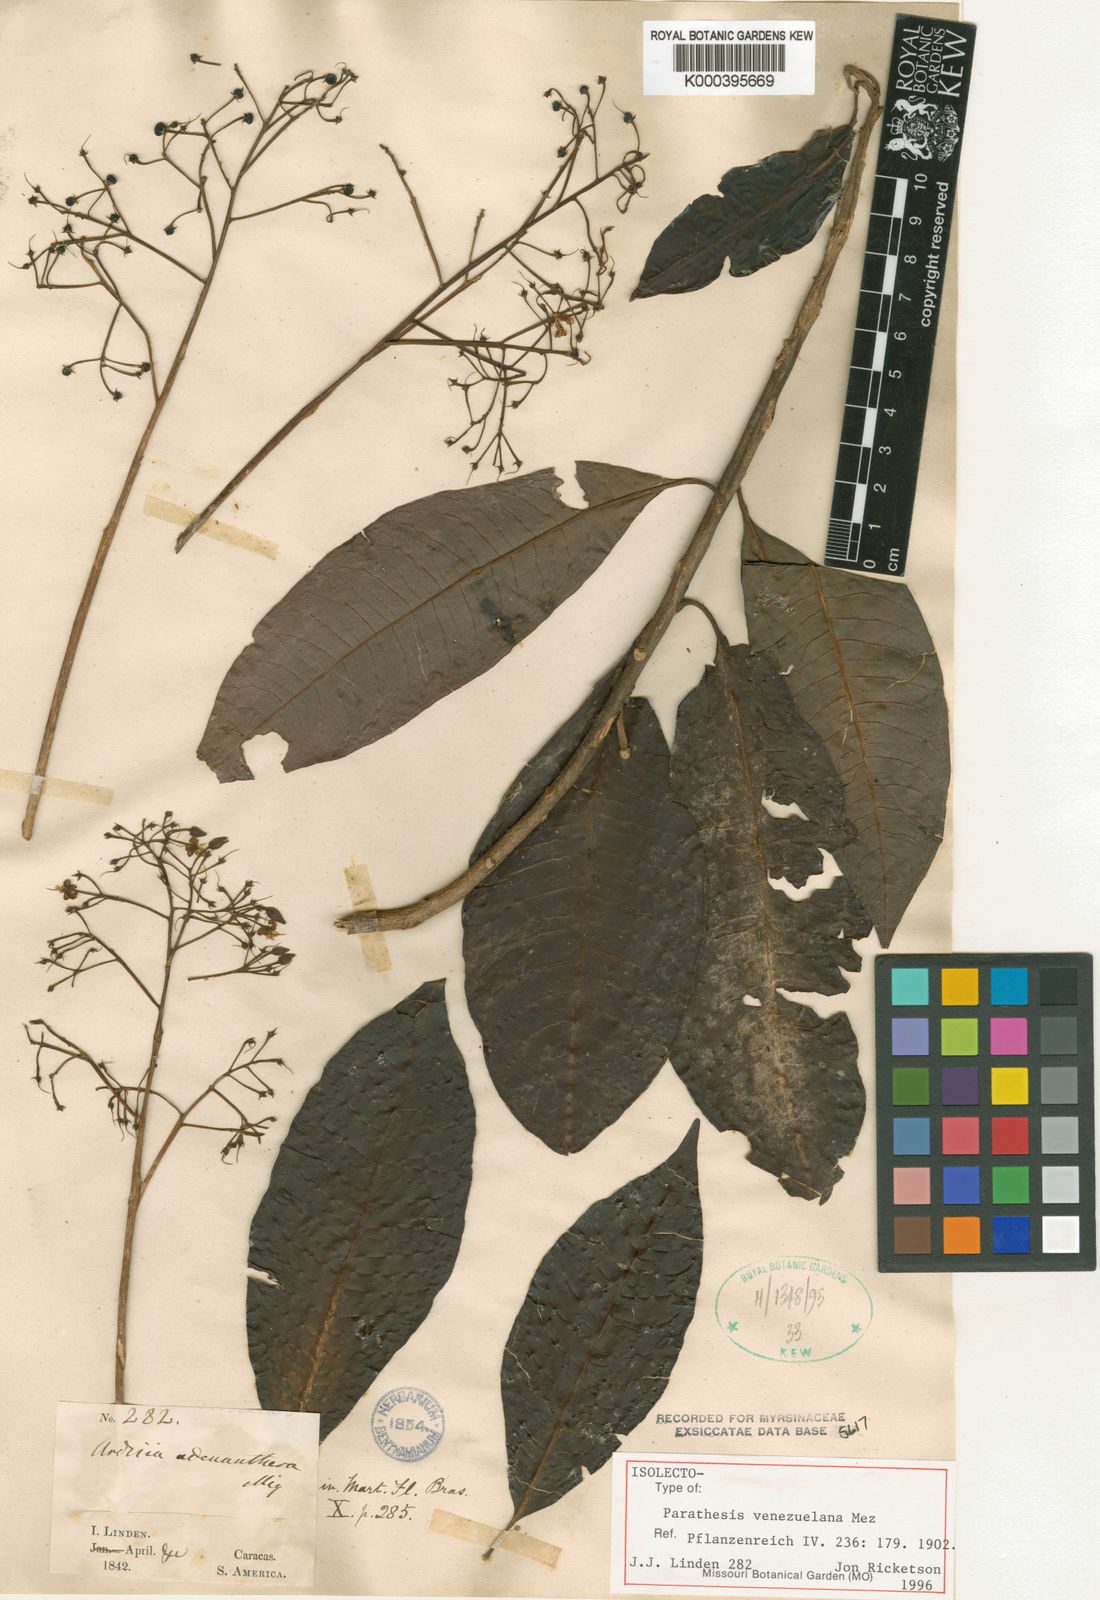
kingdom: Plantae
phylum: Tracheophyta
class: Magnoliopsida
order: Ericales
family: Primulaceae
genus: Parathesis
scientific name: Parathesis venezuelana
